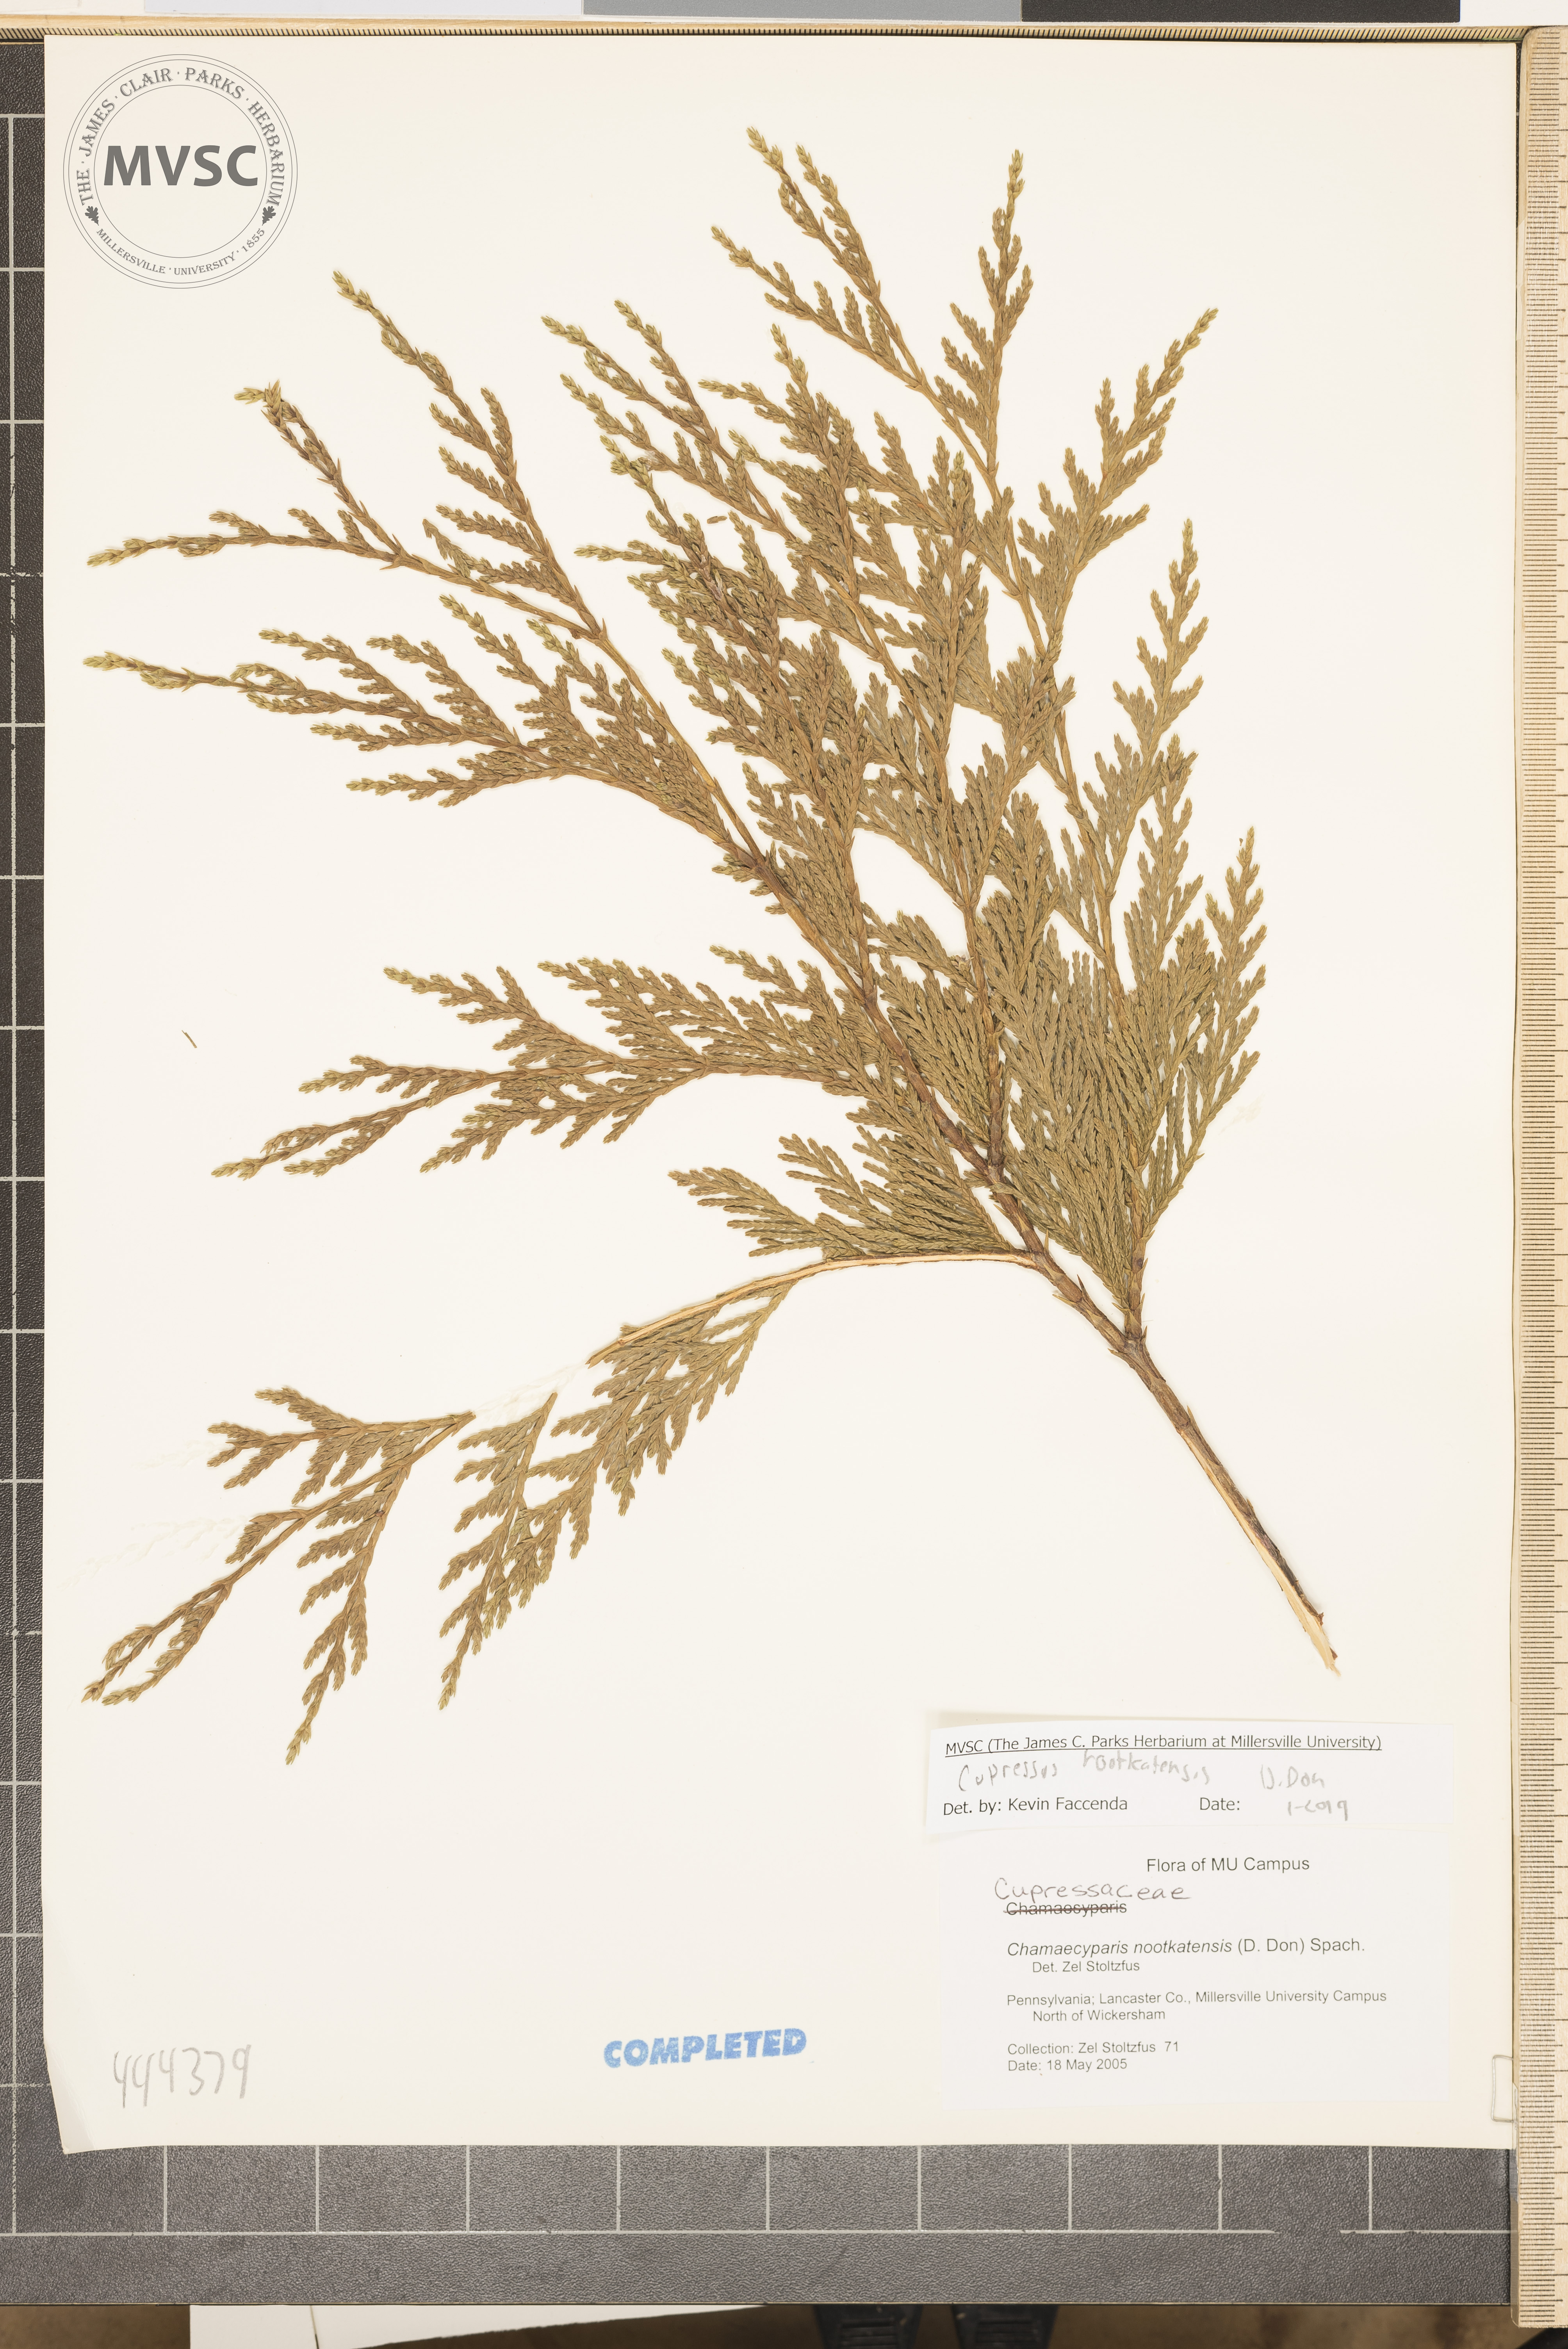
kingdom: Plantae
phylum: Tracheophyta
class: Pinopsida
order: Pinales
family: Cupressaceae
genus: Xanthocyparis
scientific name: Xanthocyparis nootkatensis
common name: Nootka cypress
